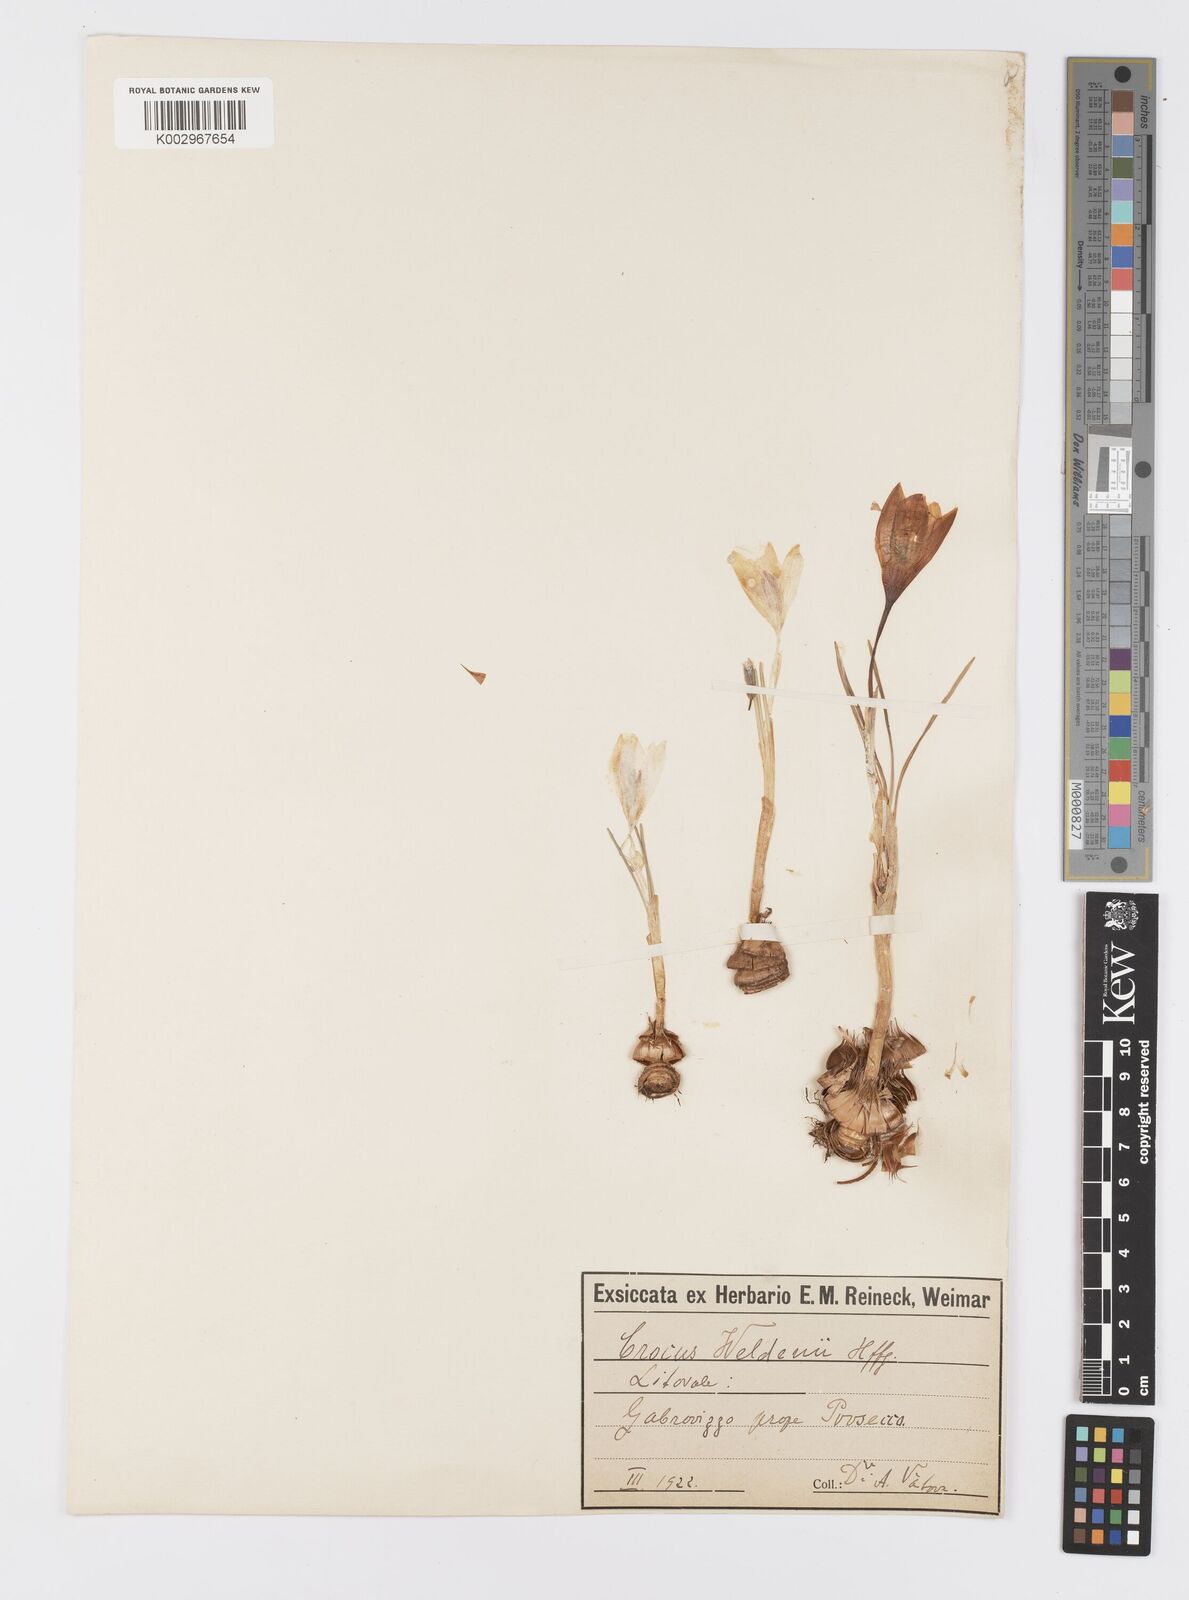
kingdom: Plantae
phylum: Tracheophyta
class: Liliopsida
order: Asparagales
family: Iridaceae
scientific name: Iridaceae
